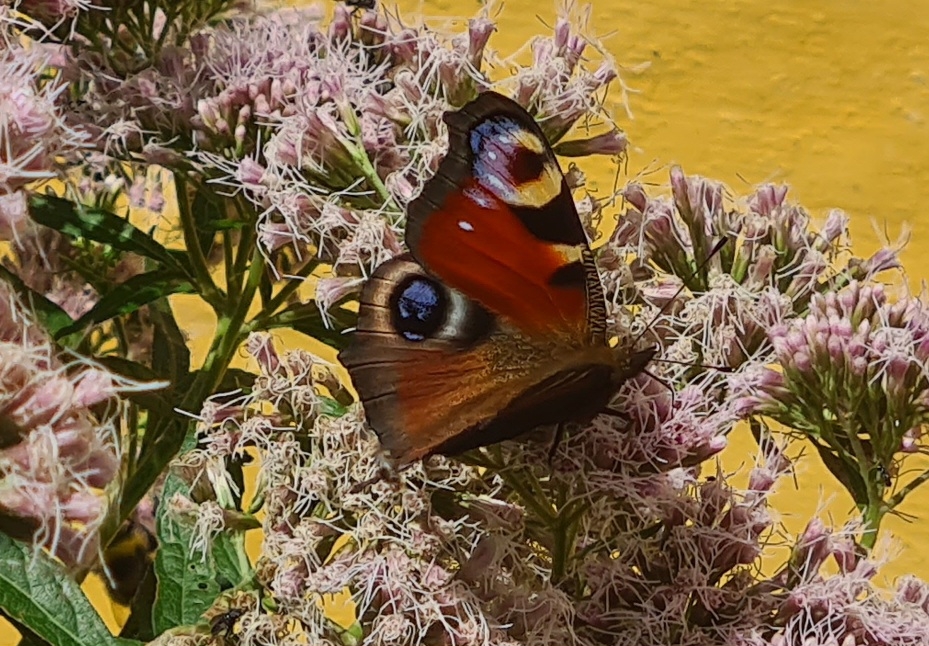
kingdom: Animalia
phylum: Arthropoda
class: Insecta
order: Lepidoptera
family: Nymphalidae
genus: Aglais
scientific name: Aglais io
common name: Dagpåfugleøje
